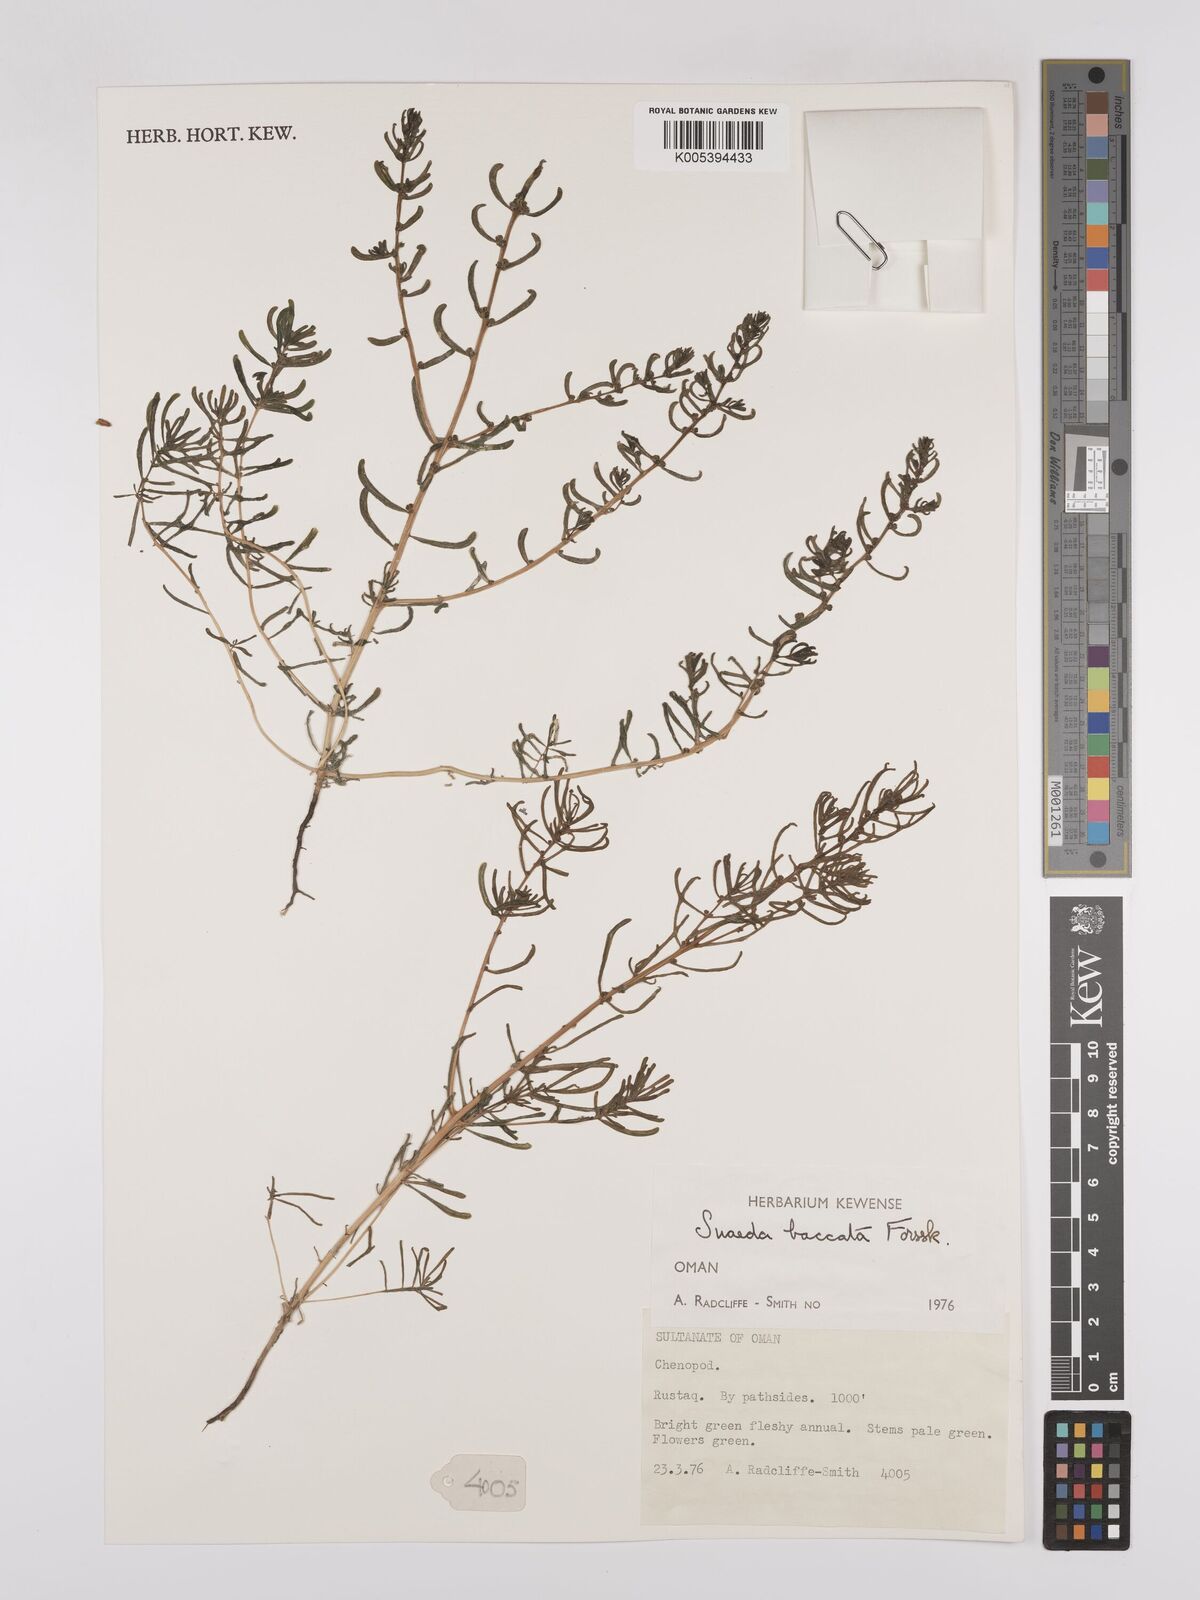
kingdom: Plantae
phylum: Tracheophyta
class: Magnoliopsida
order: Caryophyllales
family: Amaranthaceae
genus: Suaeda
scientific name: Suaeda aegyptiaca
